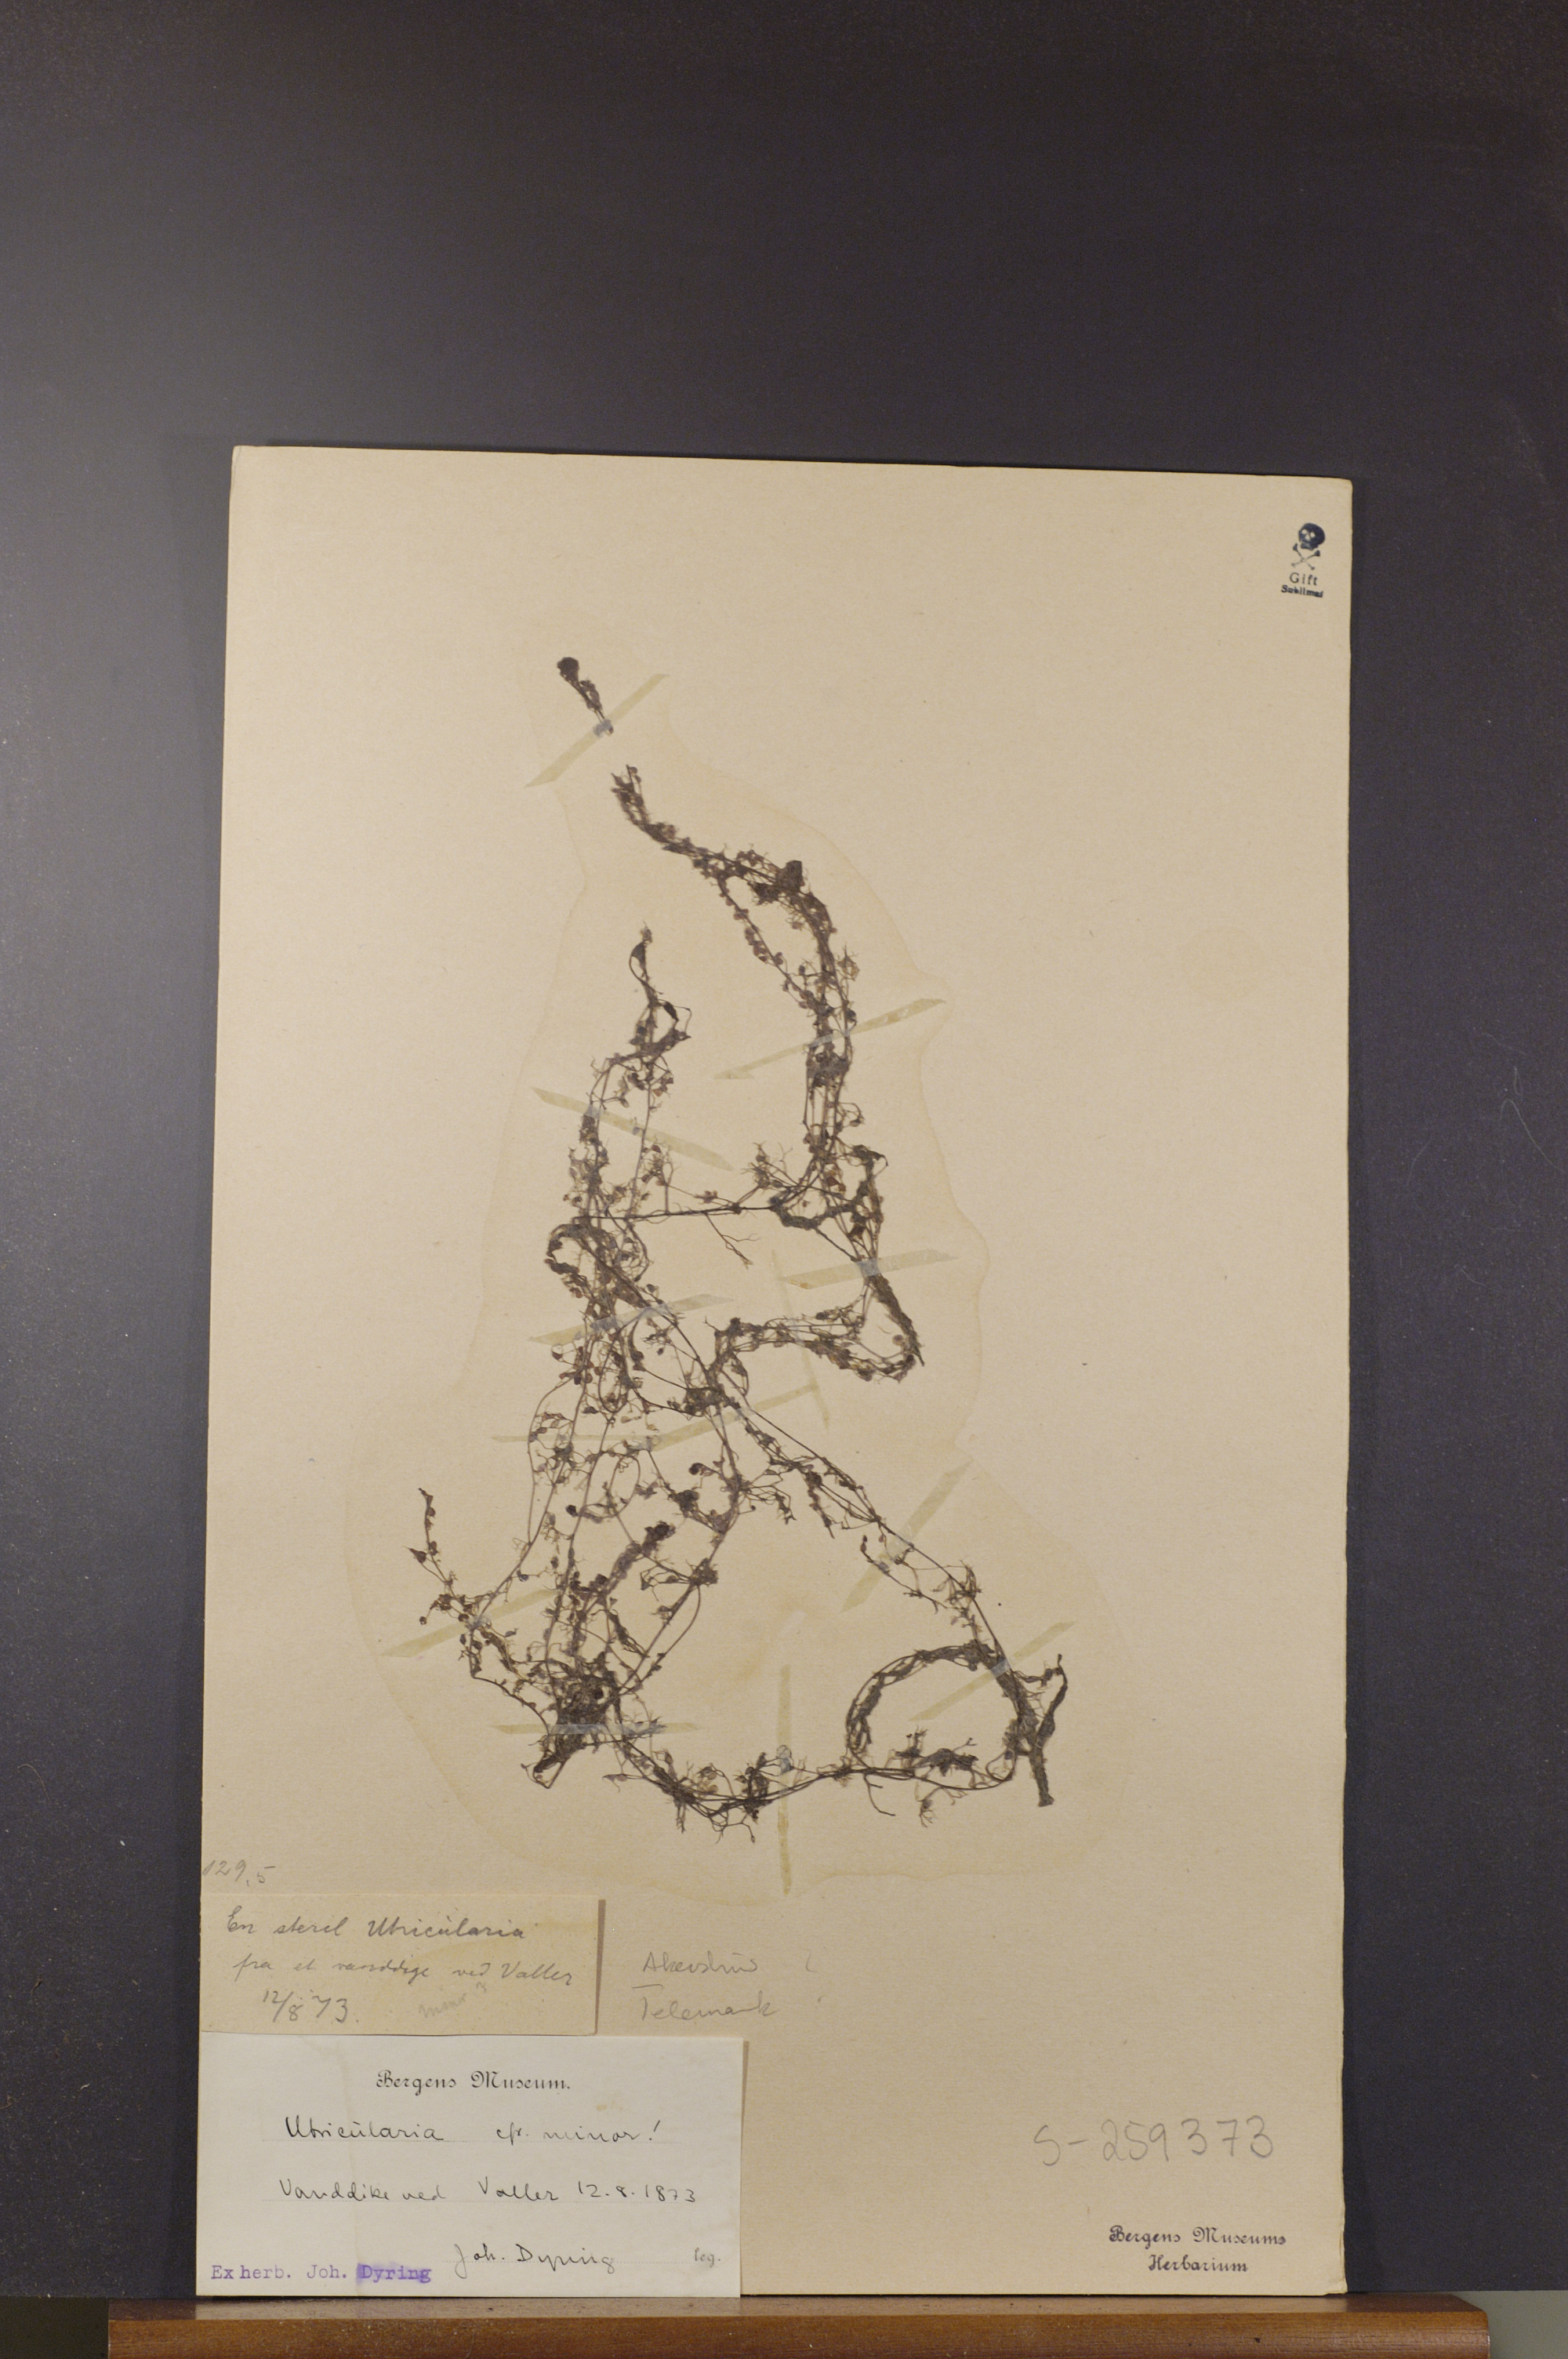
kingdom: Plantae
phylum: Tracheophyta
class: Magnoliopsida
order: Lamiales
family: Lentibulariaceae
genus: Utricularia
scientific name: Utricularia minor
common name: Lesser bladderwort
